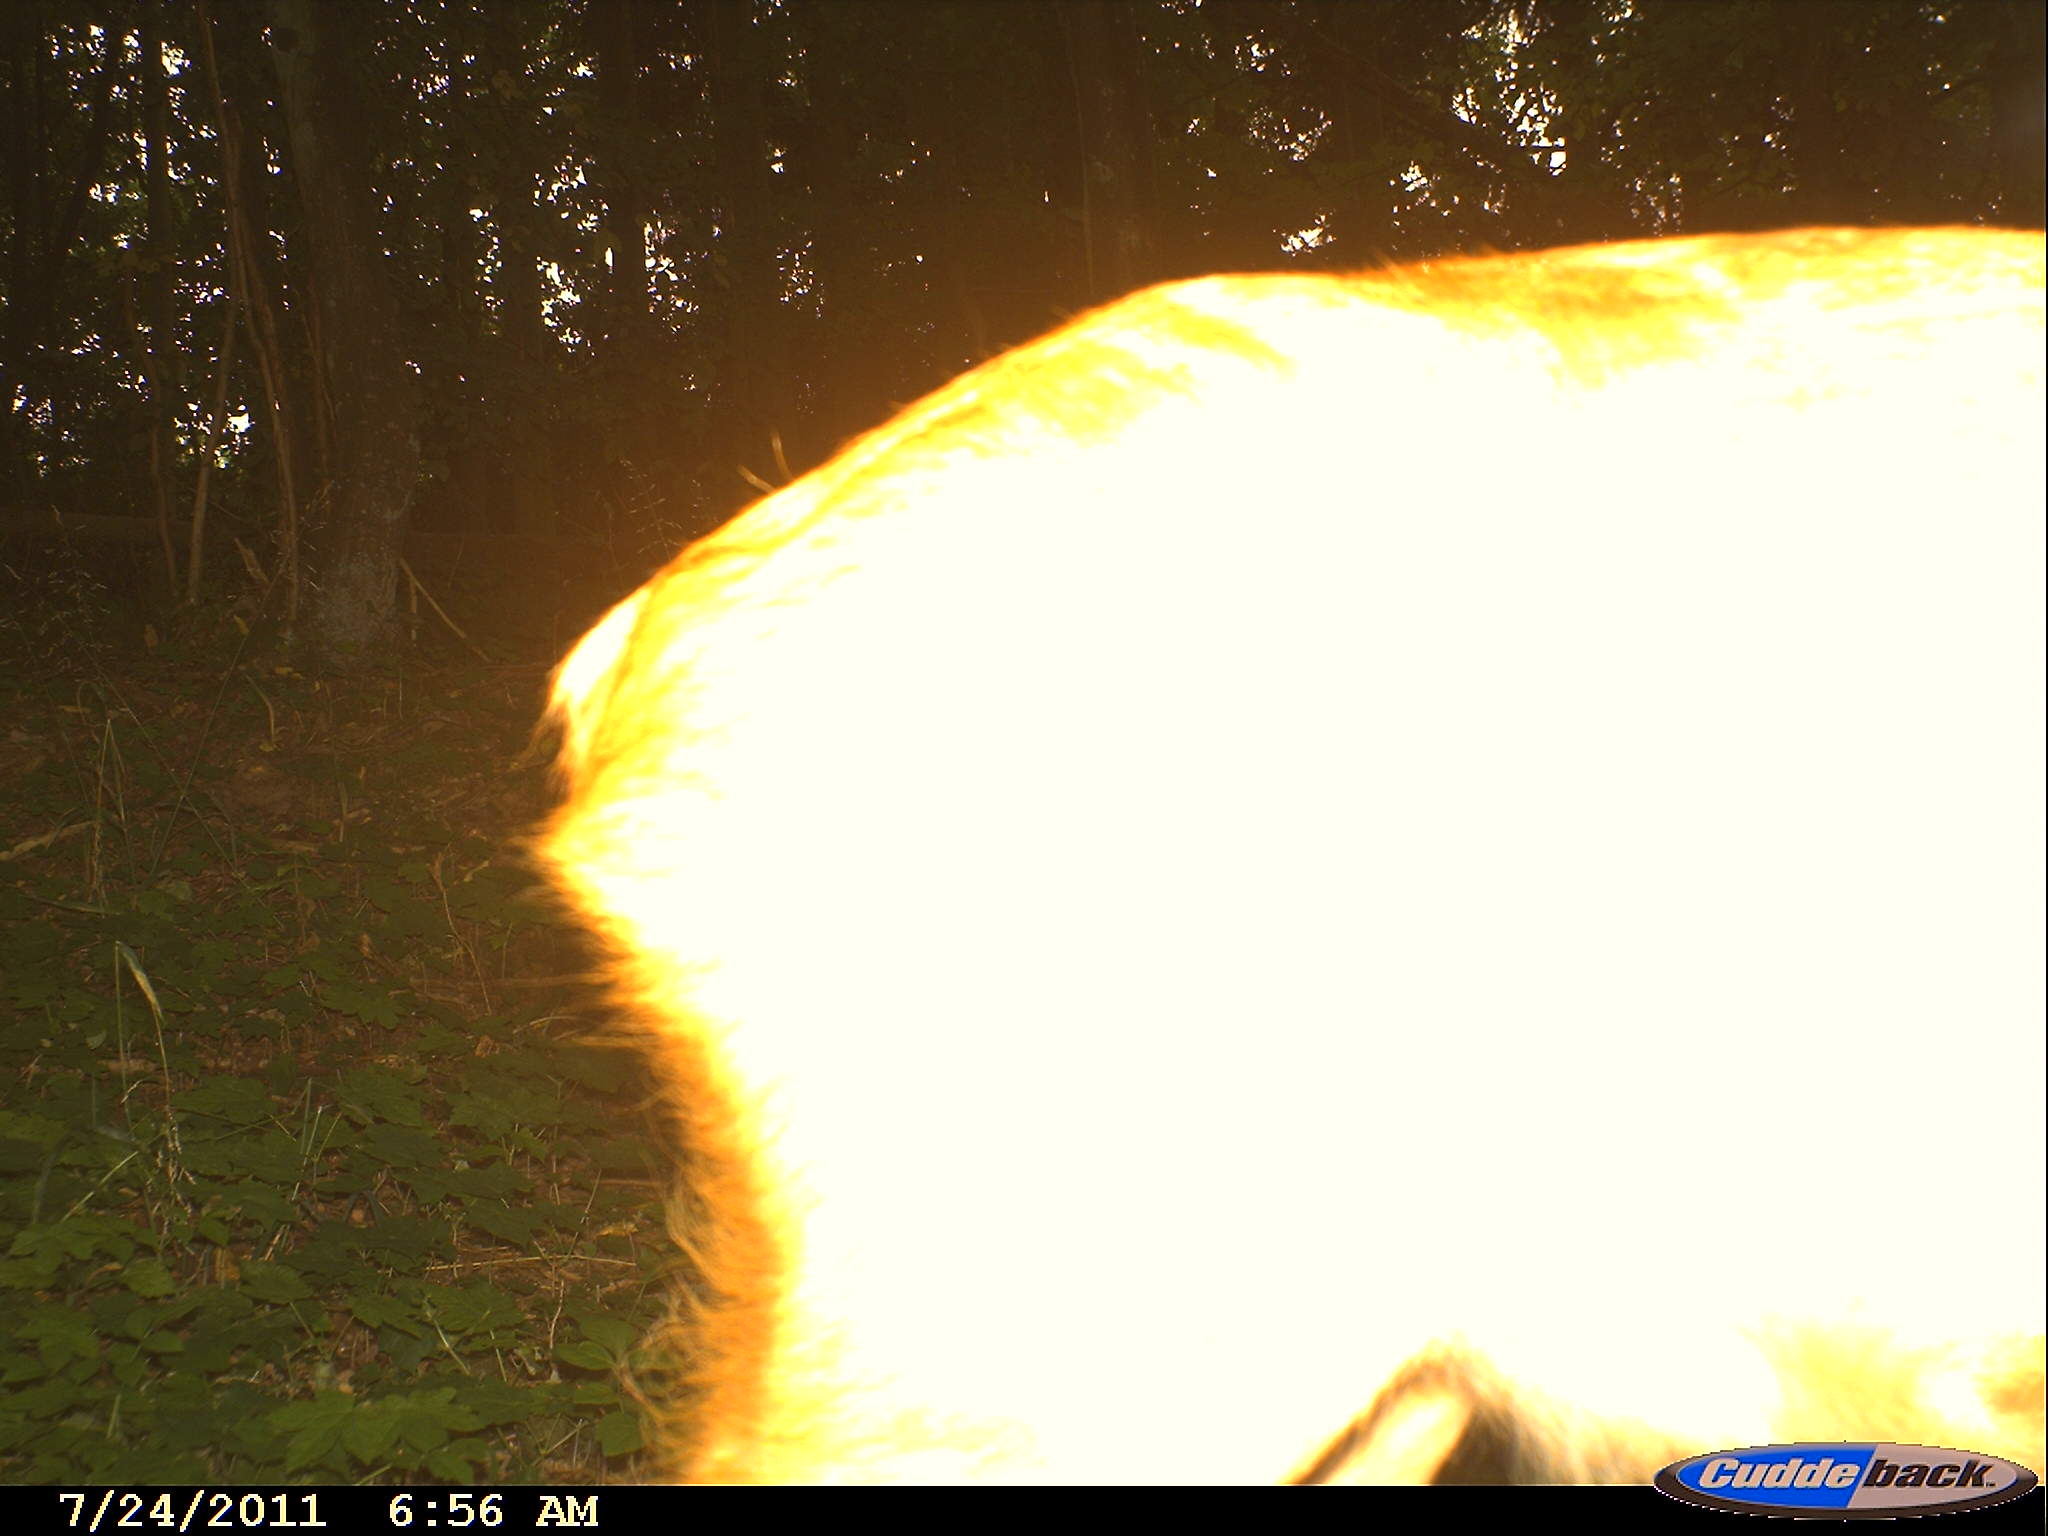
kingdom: Animalia
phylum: Chordata
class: Mammalia
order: Artiodactyla
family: Cervidae
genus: Capreolus
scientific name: Capreolus capreolus
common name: Western roe deer
